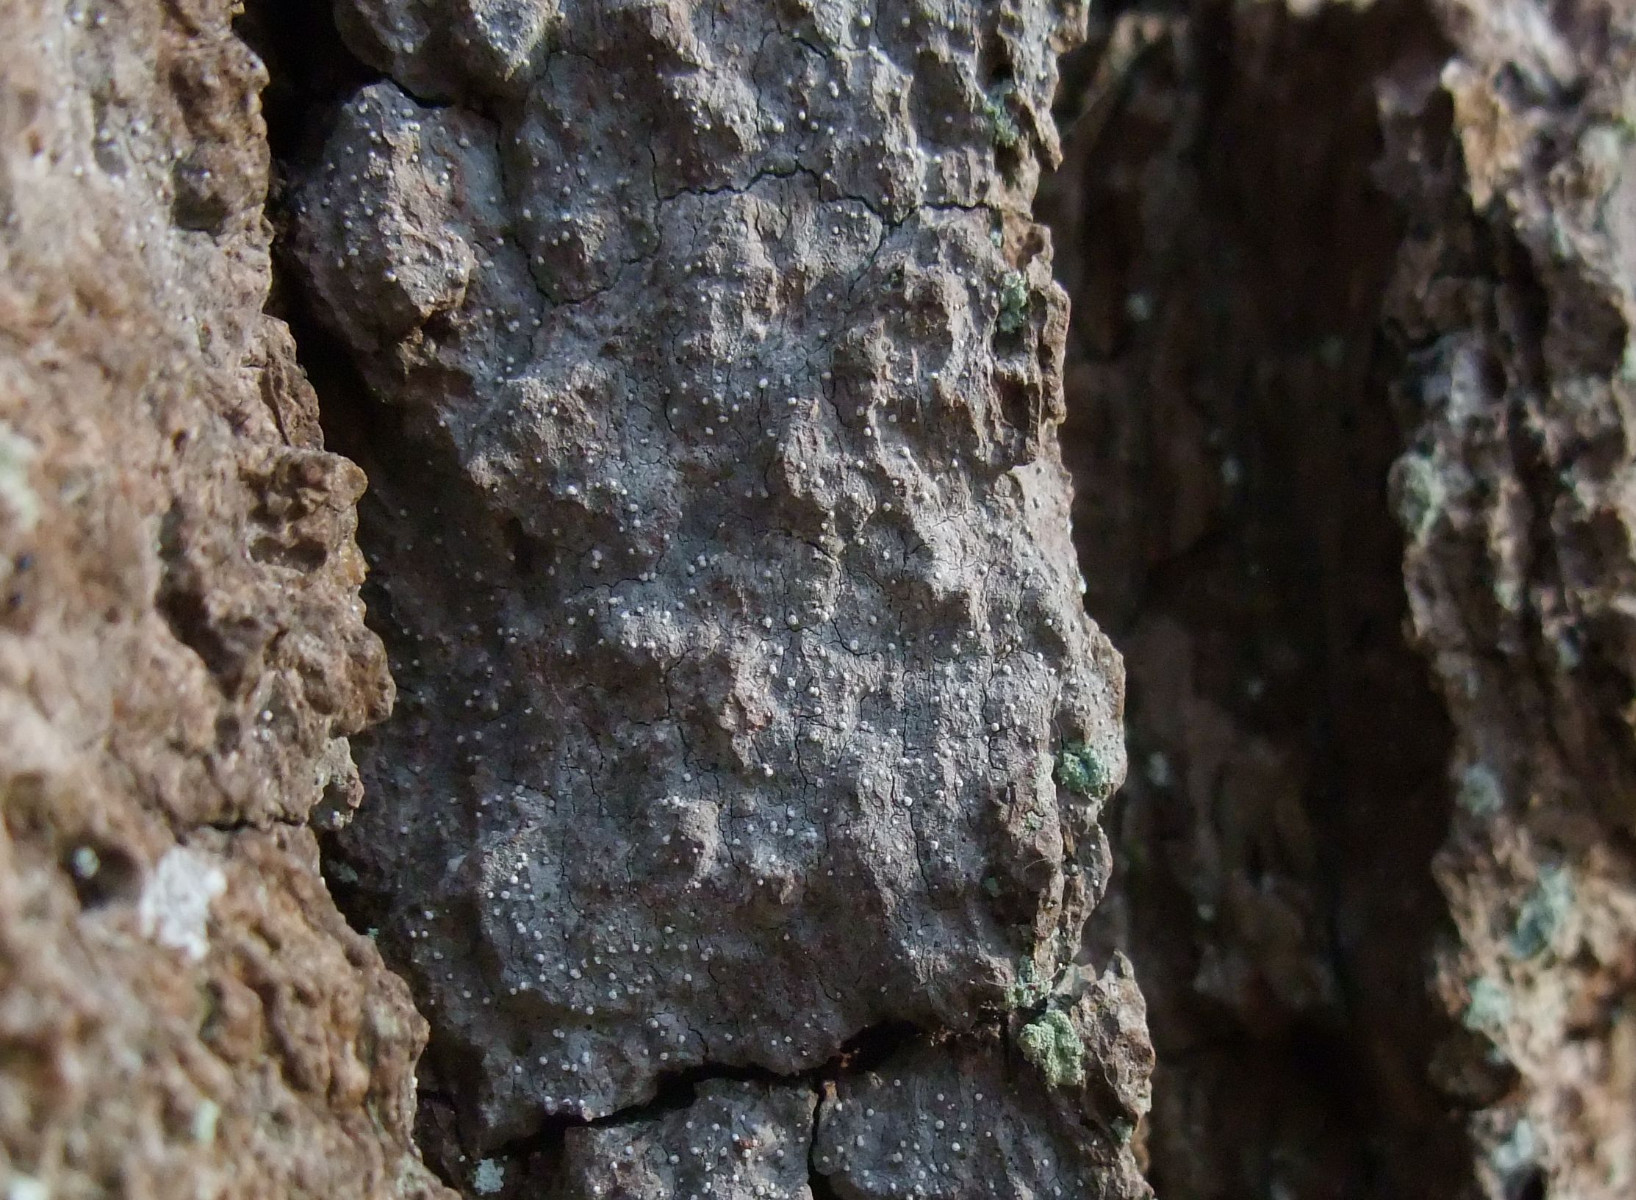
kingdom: Fungi
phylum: Ascomycota
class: Arthoniomycetes
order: Arthoniales
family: Opegraphaceae
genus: Opegrapha
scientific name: Opegrapha vermicellifera
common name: nåleprikket bogstavlav
